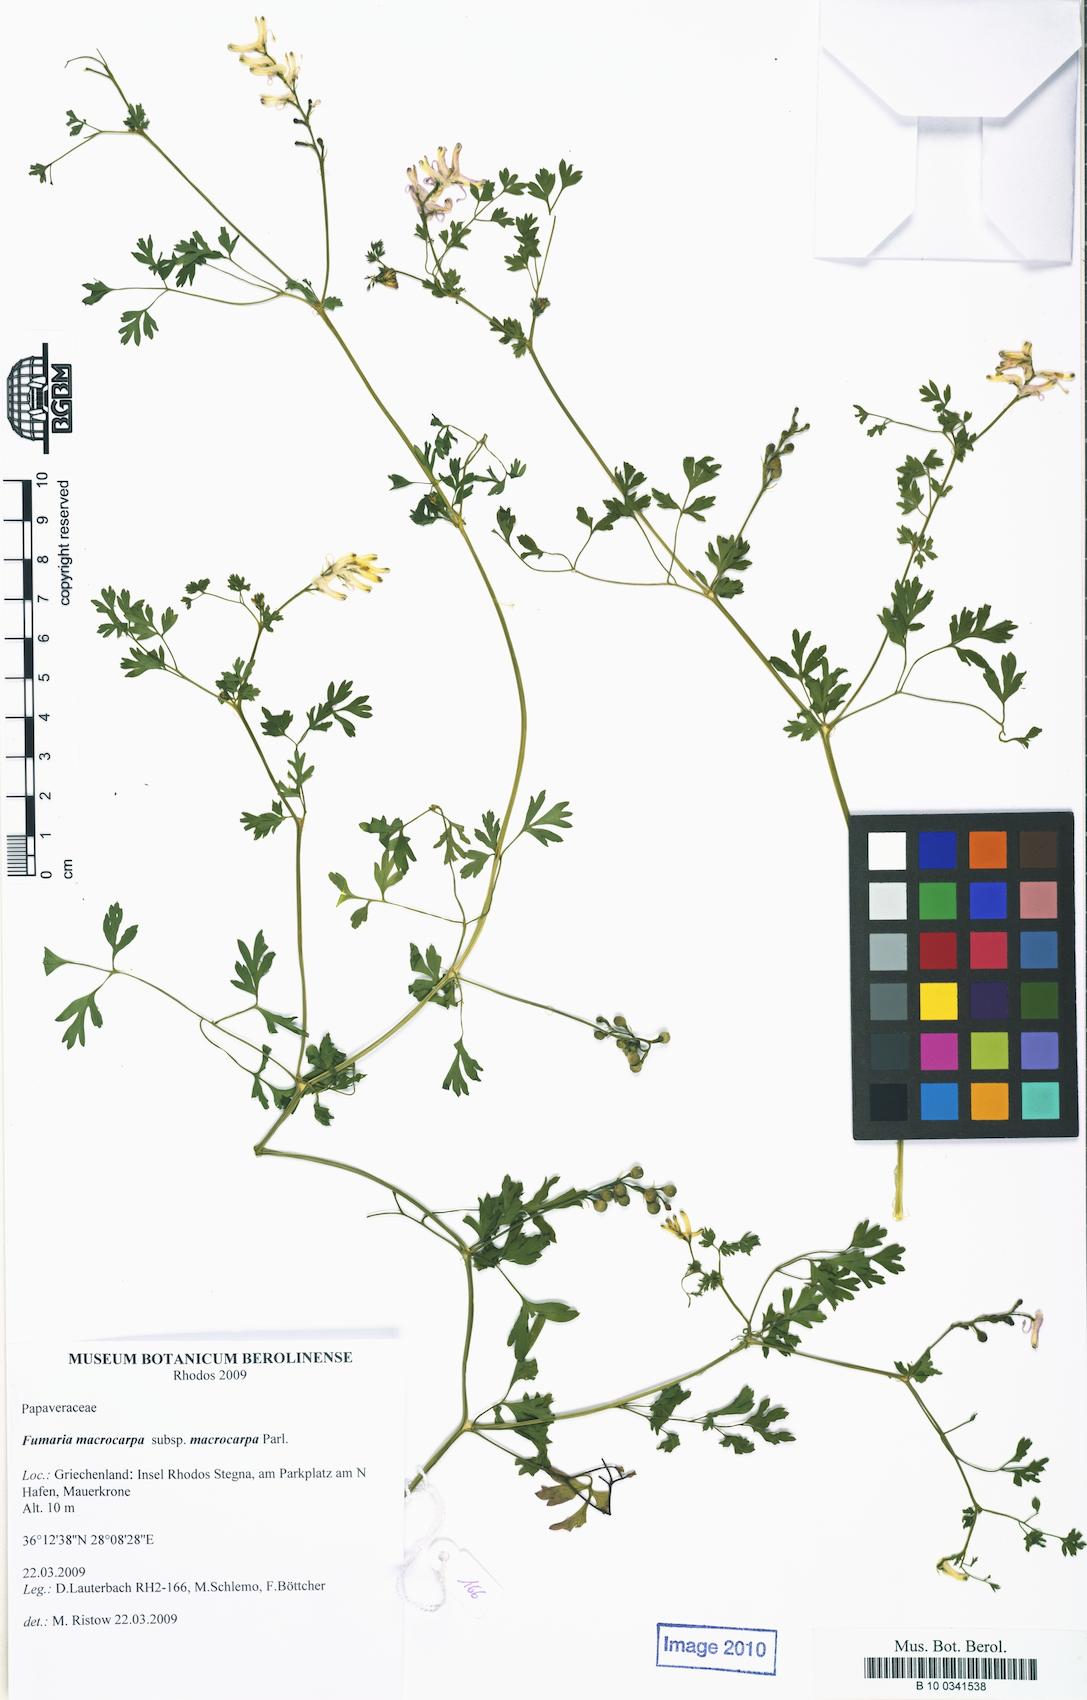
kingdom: Plantae
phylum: Tracheophyta
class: Magnoliopsida
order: Ranunculales
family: Papaveraceae
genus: Fumaria
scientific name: Fumaria macrocarpa
